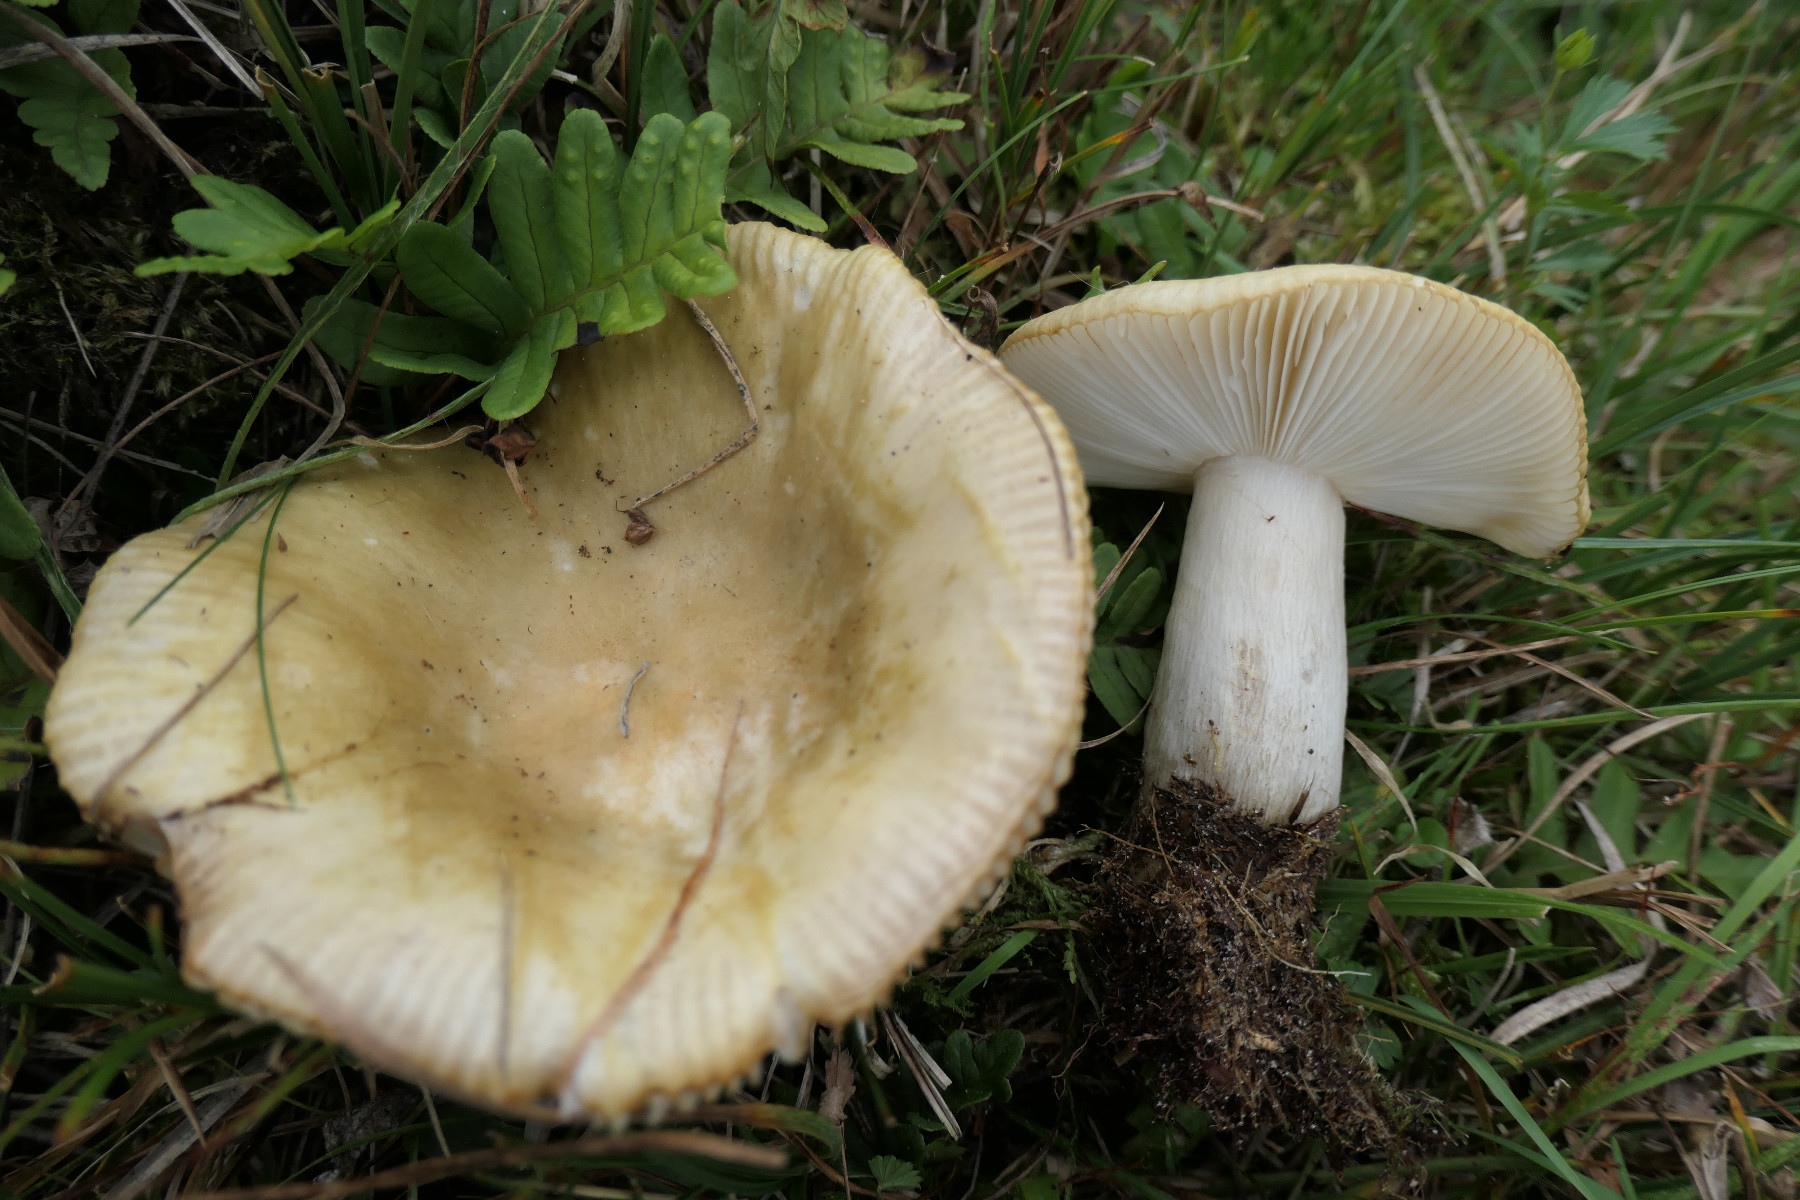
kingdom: Fungi
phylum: Basidiomycota
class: Agaricomycetes
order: Russulales
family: Russulaceae
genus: Russula
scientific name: Russula ochroleuca
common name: okkergul skørhat
